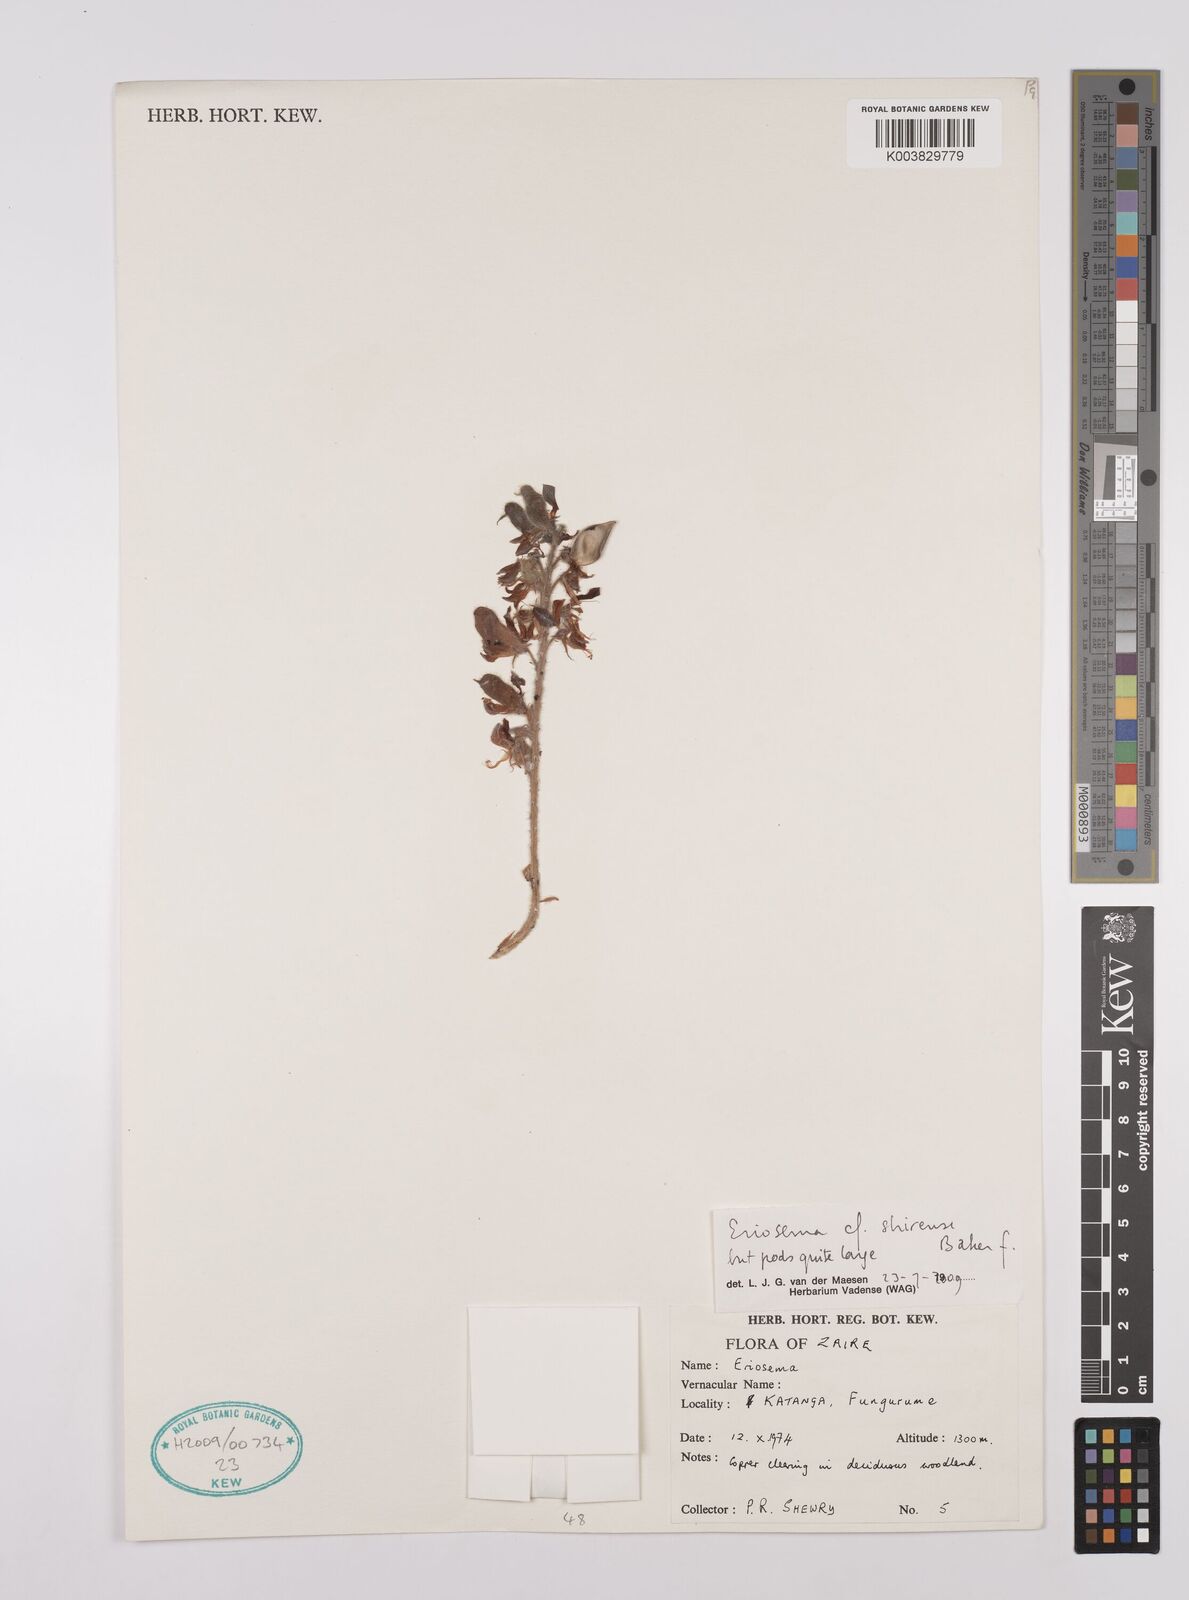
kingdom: Plantae
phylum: Tracheophyta
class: Magnoliopsida
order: Fabales
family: Fabaceae
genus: Eriosema
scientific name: Eriosema shirense
